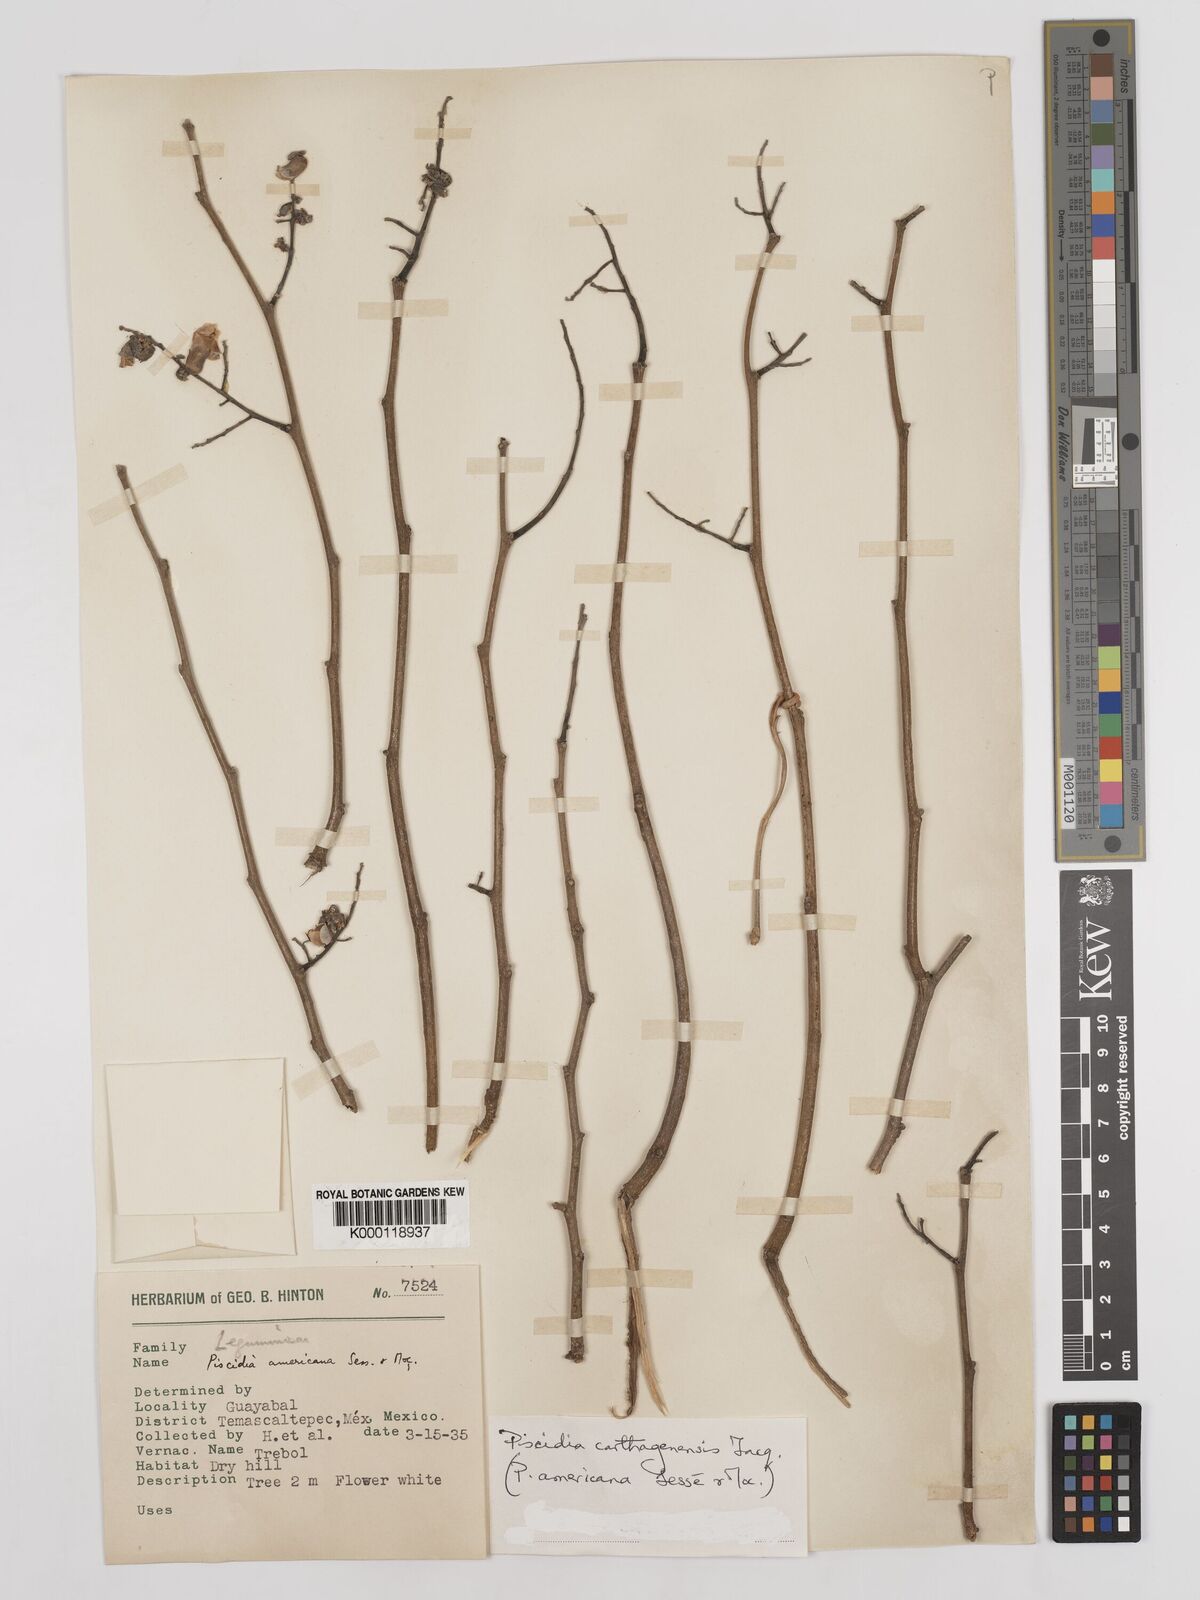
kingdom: Plantae
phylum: Tracheophyta
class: Magnoliopsida
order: Fabales
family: Fabaceae
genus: Piscidia
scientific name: Piscidia carthagenensis
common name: Stinkwood
